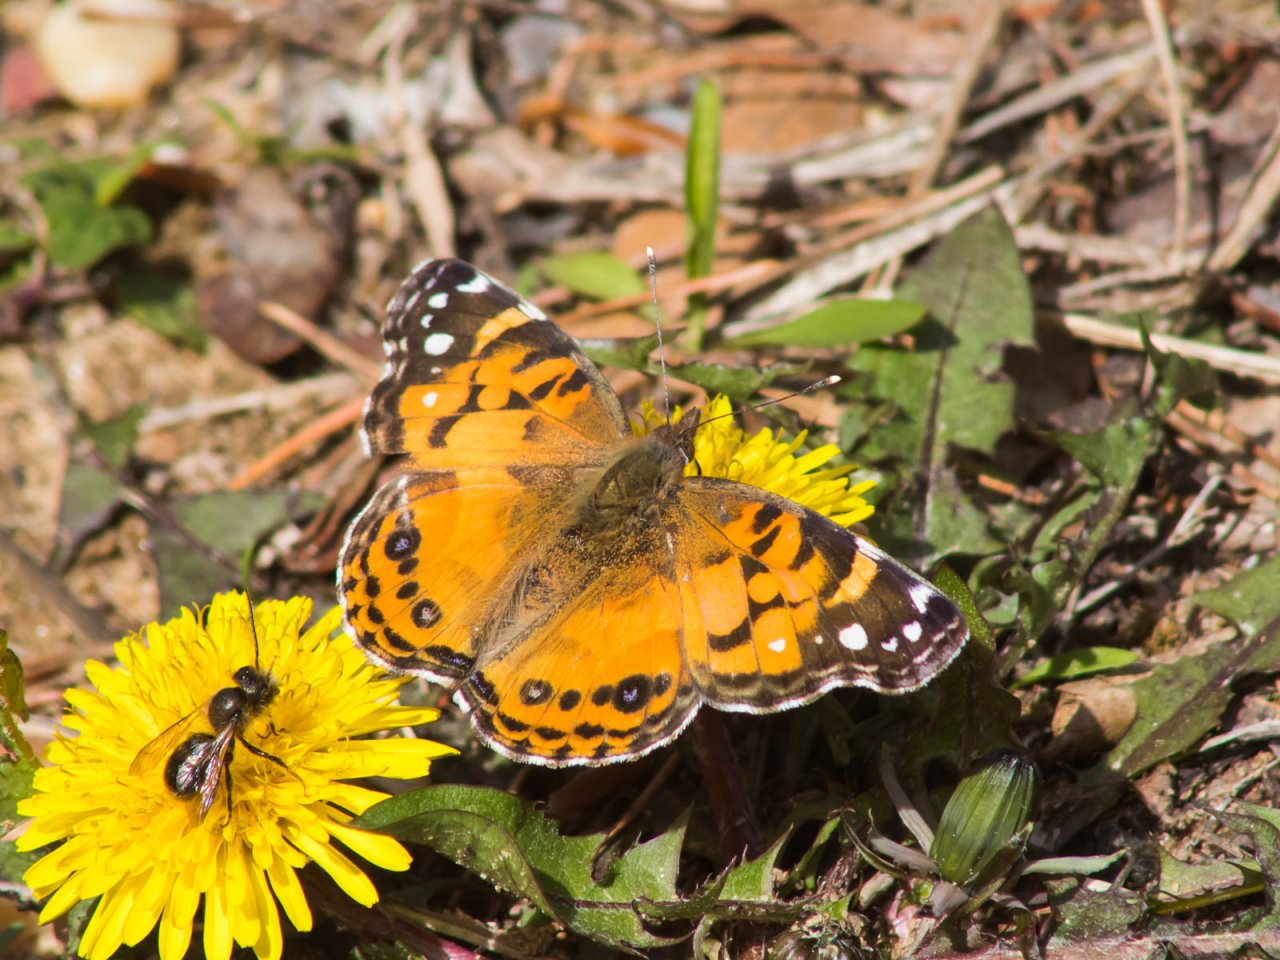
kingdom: Animalia
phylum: Arthropoda
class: Insecta
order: Lepidoptera
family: Nymphalidae
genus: Vanessa
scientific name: Vanessa virginiensis
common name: American Lady
